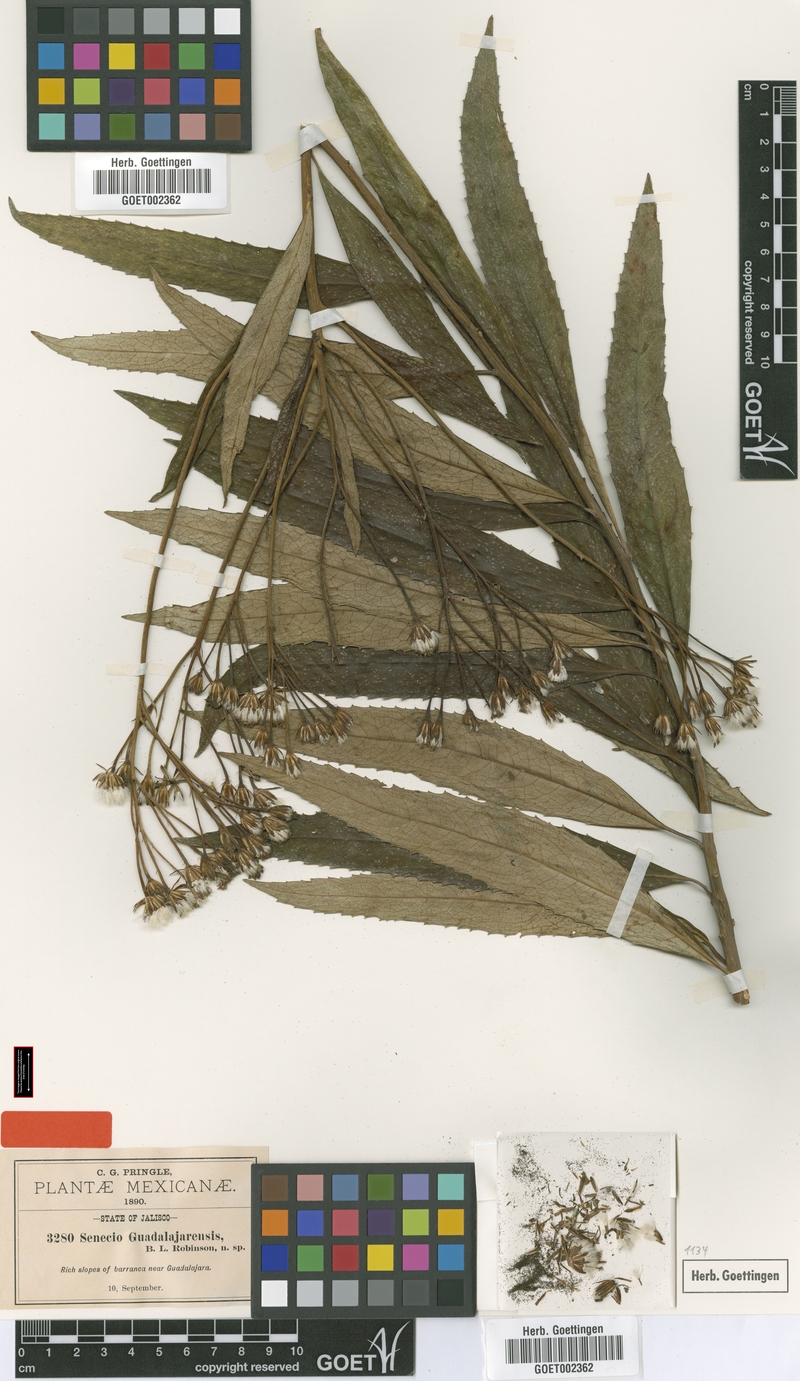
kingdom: Plantae
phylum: Tracheophyta
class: Magnoliopsida
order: Asterales
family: Asteraceae
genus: Roldana
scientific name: Roldana guadalajarensis
